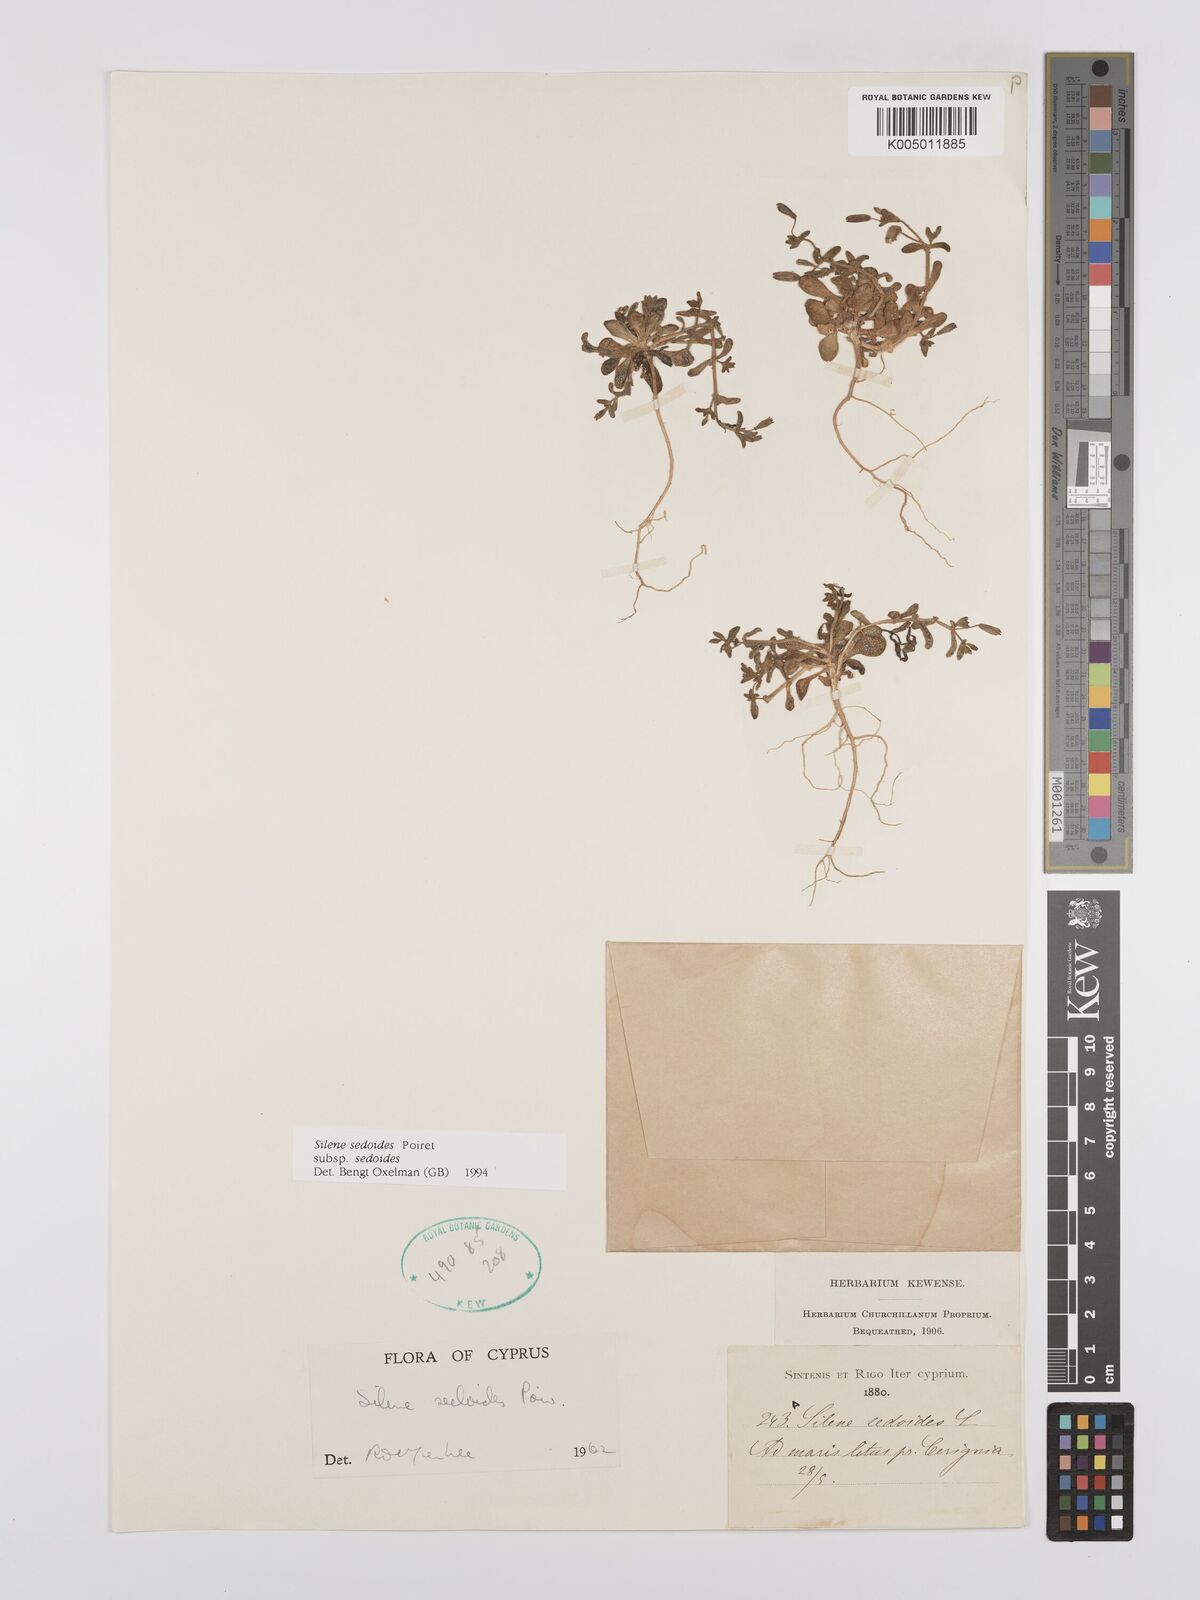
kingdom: Plantae
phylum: Tracheophyta
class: Magnoliopsida
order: Caryophyllales
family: Caryophyllaceae
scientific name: Caryophyllaceae
